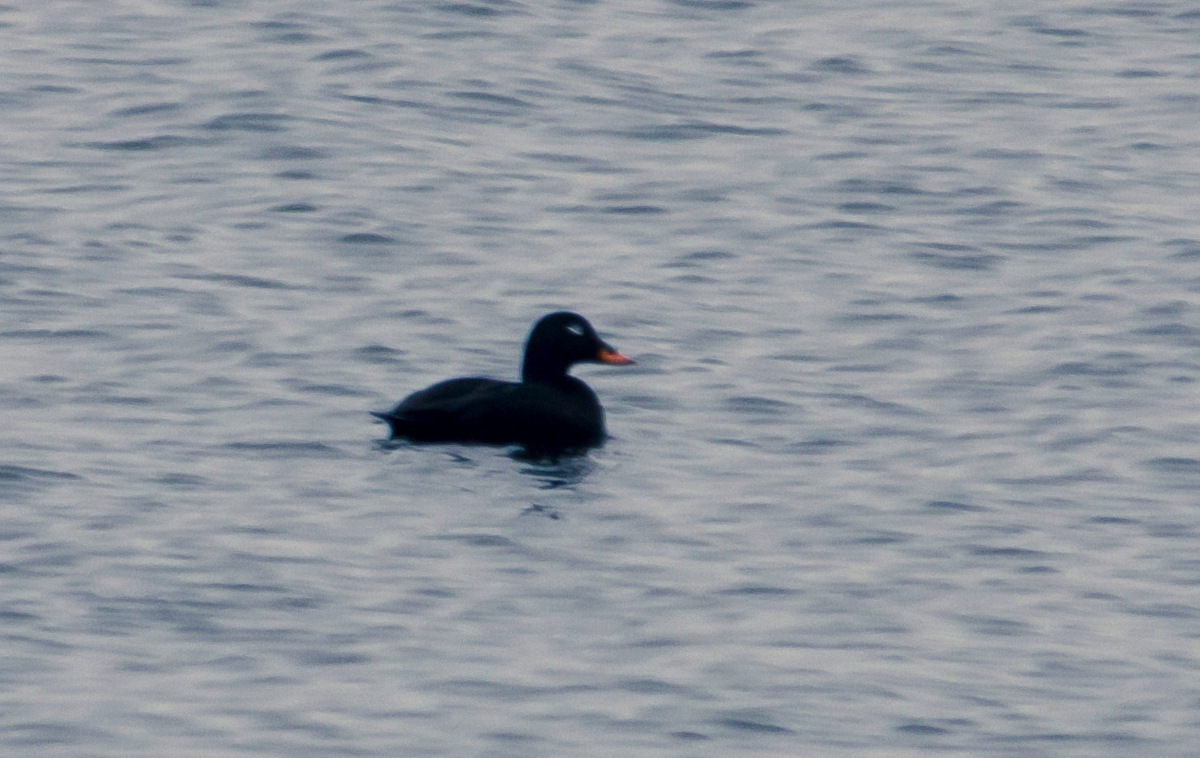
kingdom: Animalia
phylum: Chordata
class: Aves
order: Anseriformes
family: Anatidae
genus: Melanitta
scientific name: Melanitta fusca
